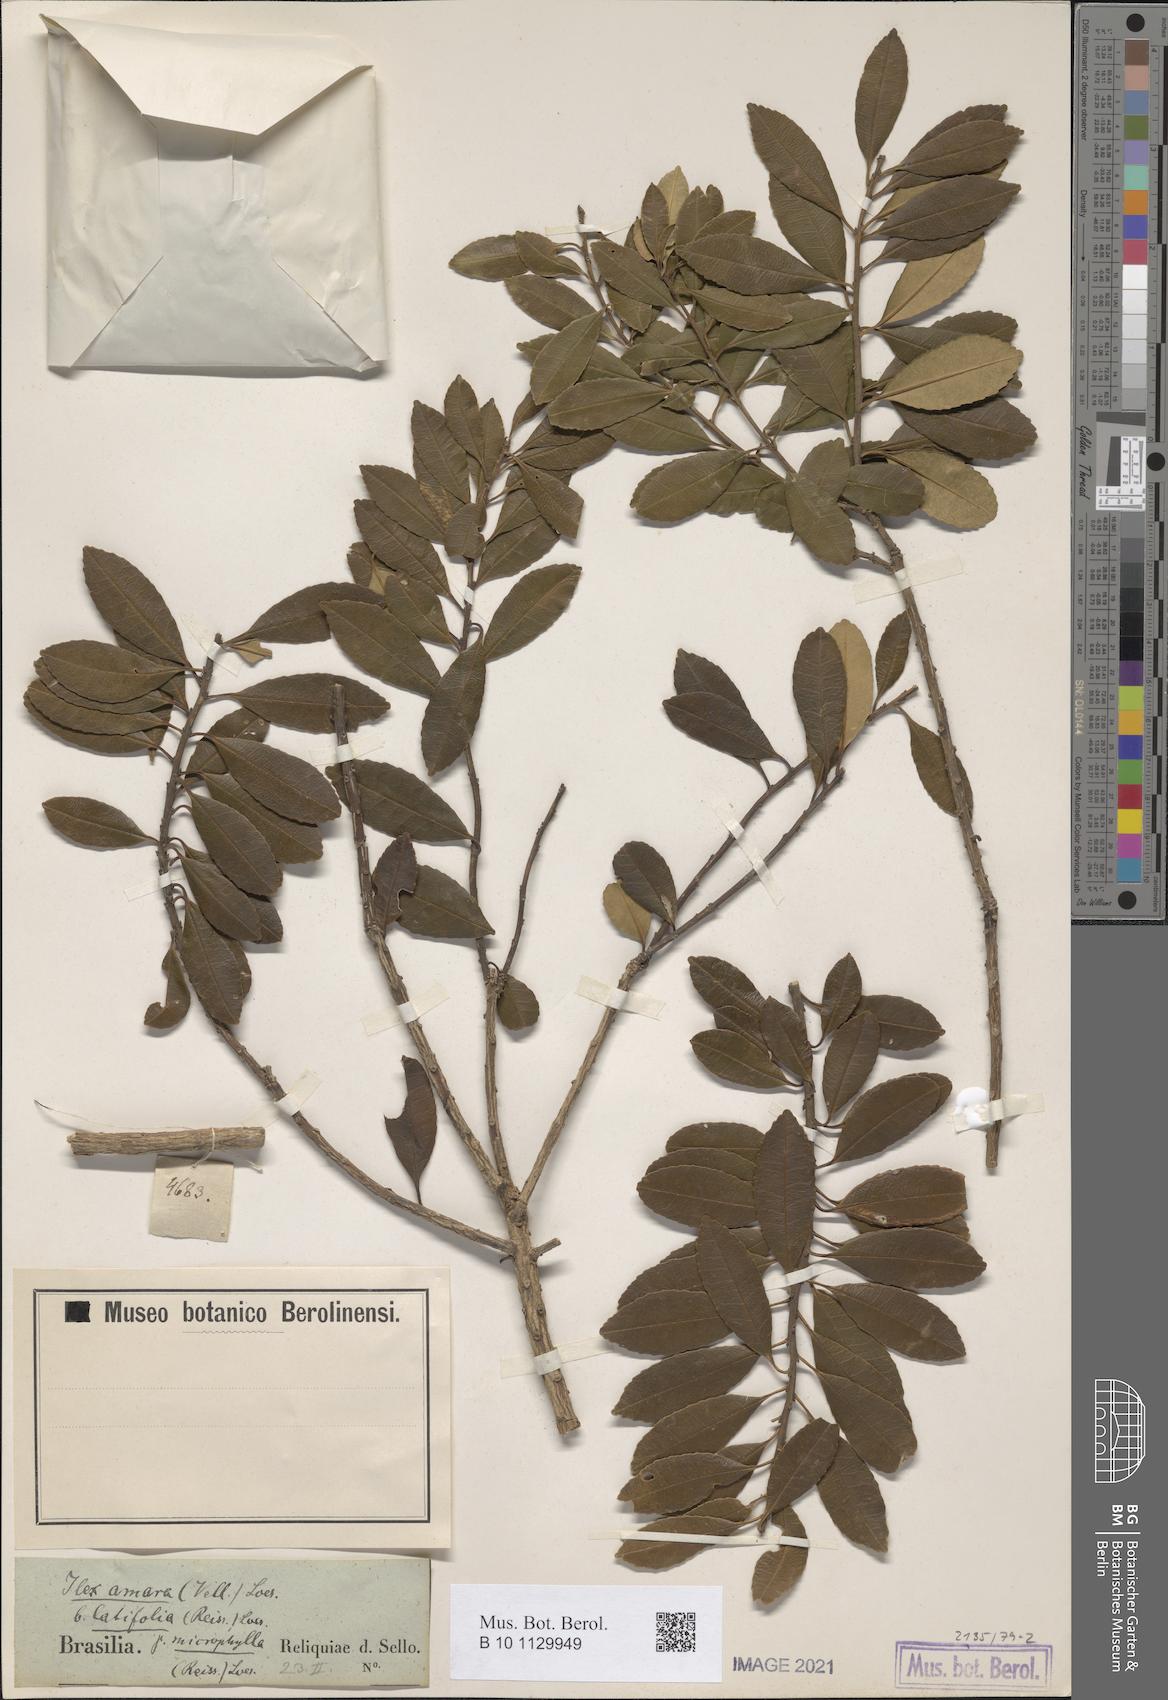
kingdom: Plantae
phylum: Tracheophyta
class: Magnoliopsida
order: Aquifoliales
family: Aquifoliaceae
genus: Ilex
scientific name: Ilex dumosa
